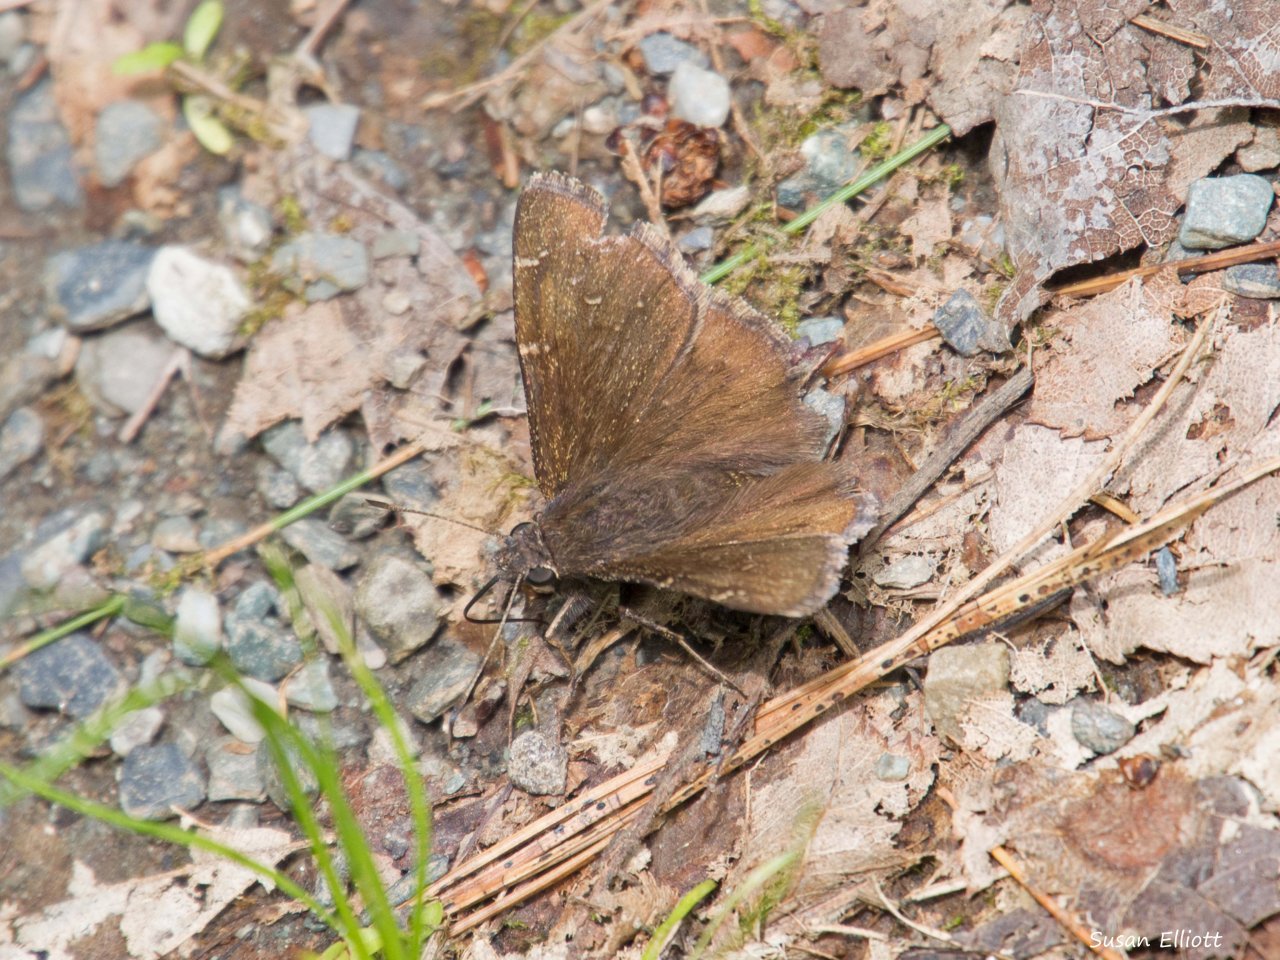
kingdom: Animalia
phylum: Arthropoda
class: Insecta
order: Lepidoptera
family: Hesperiidae
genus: Autochton
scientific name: Autochton
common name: Northern Cloudywing
